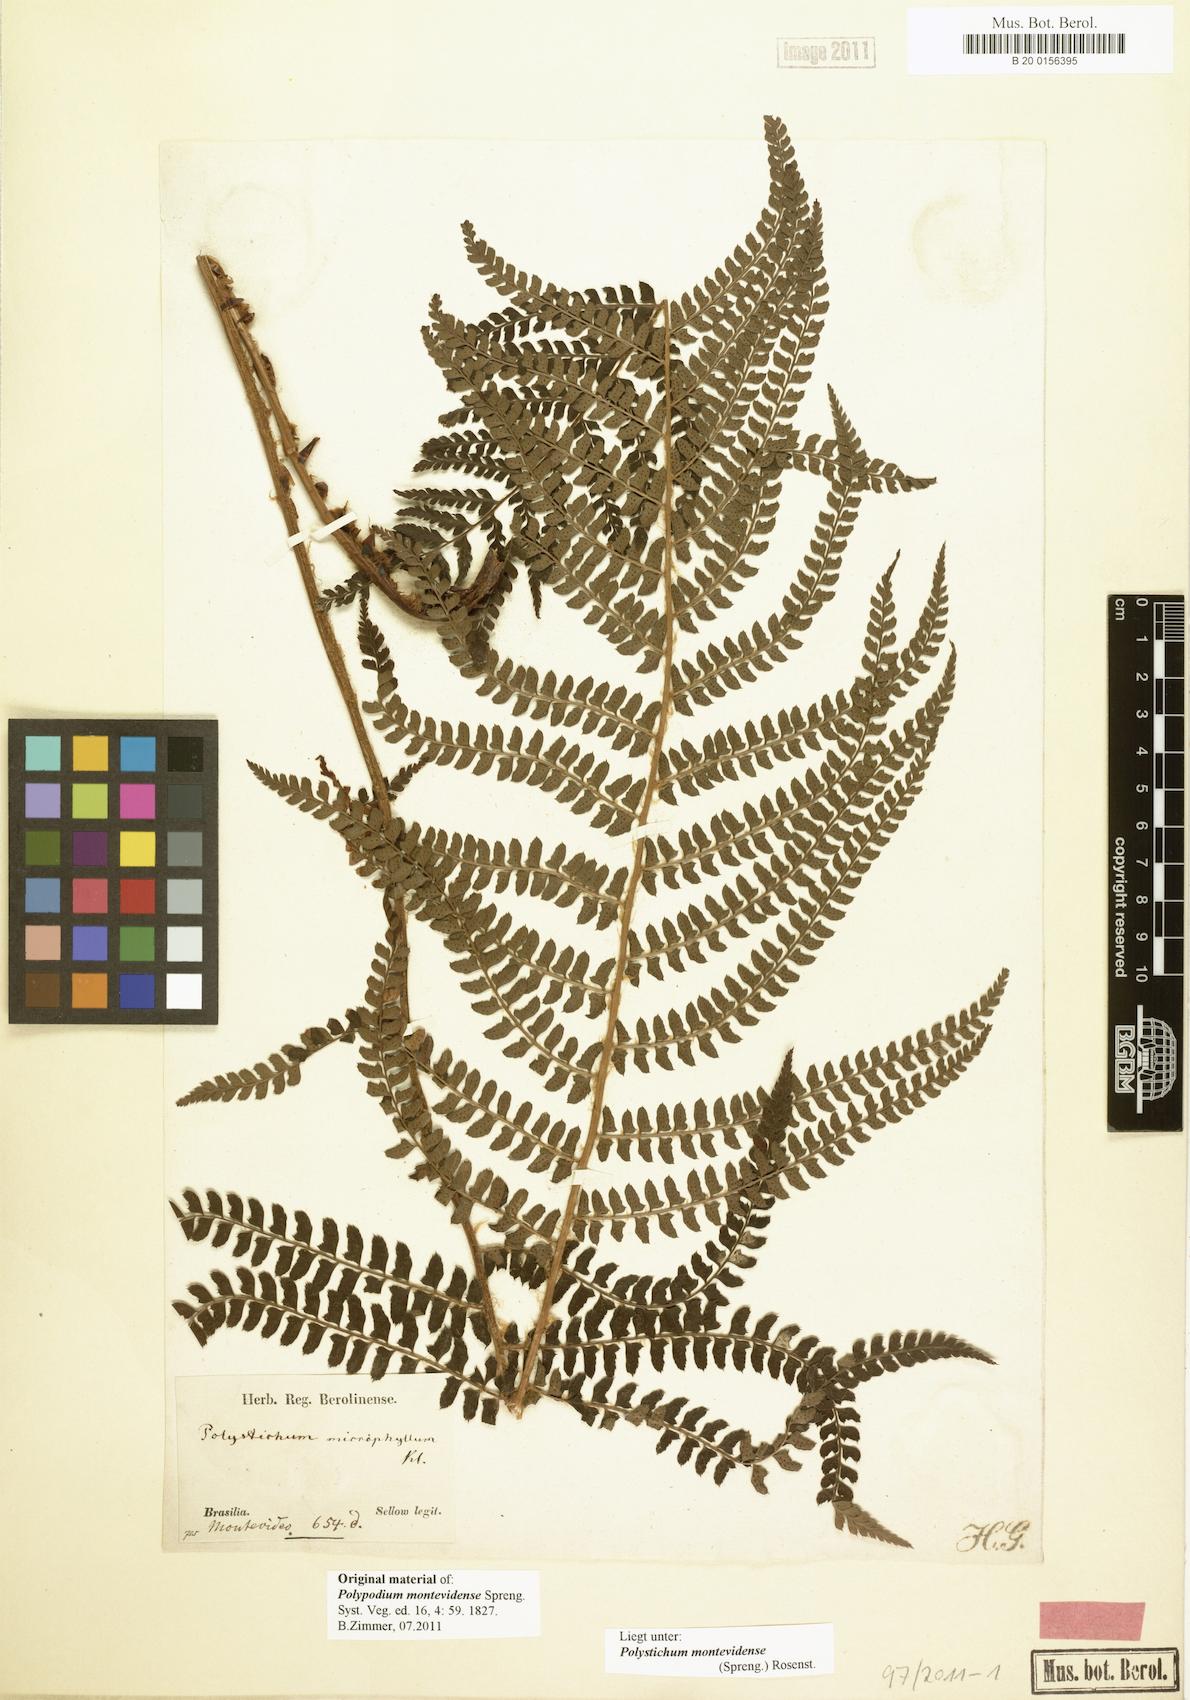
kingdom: Plantae
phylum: Tracheophyta
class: Polypodiopsida
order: Polypodiales
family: Dryopteridaceae
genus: Polystichum
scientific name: Polystichum montevidense
